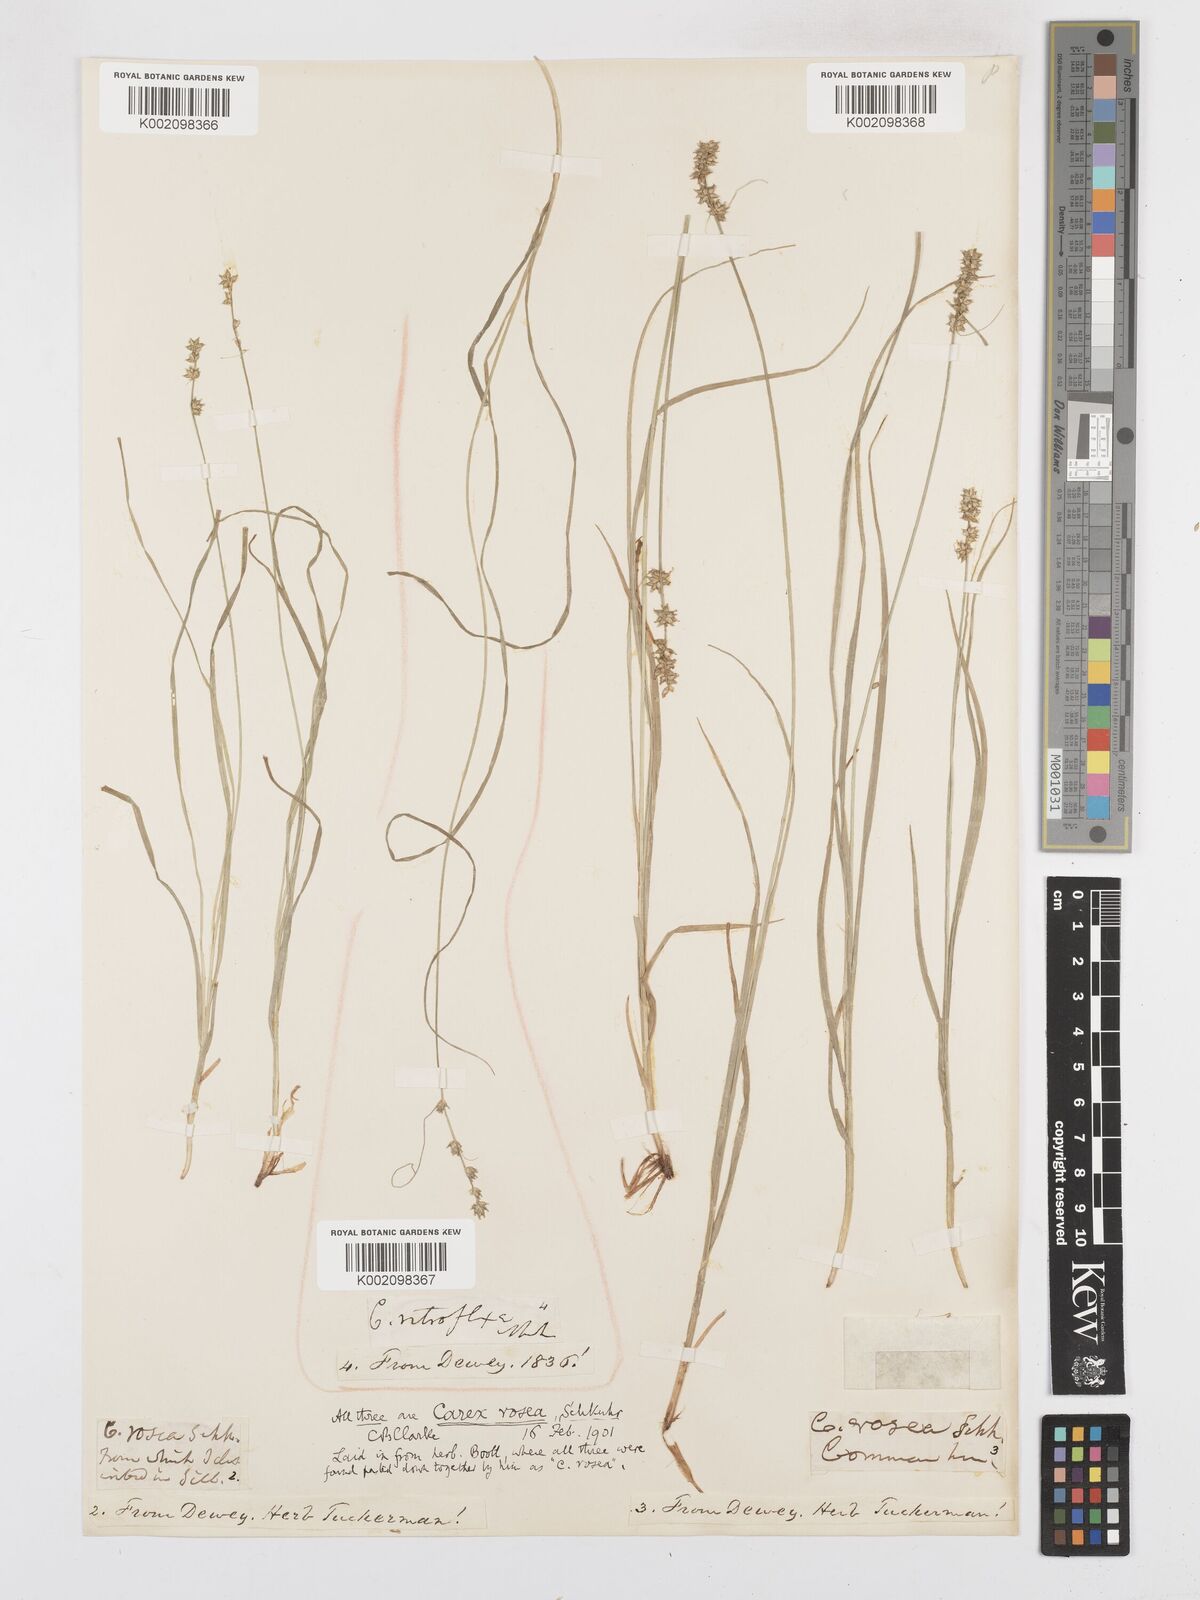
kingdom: Plantae
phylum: Tracheophyta
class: Liliopsida
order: Poales
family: Cyperaceae
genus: Carex
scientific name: Carex rosea
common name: Curly-styled wood sedge
